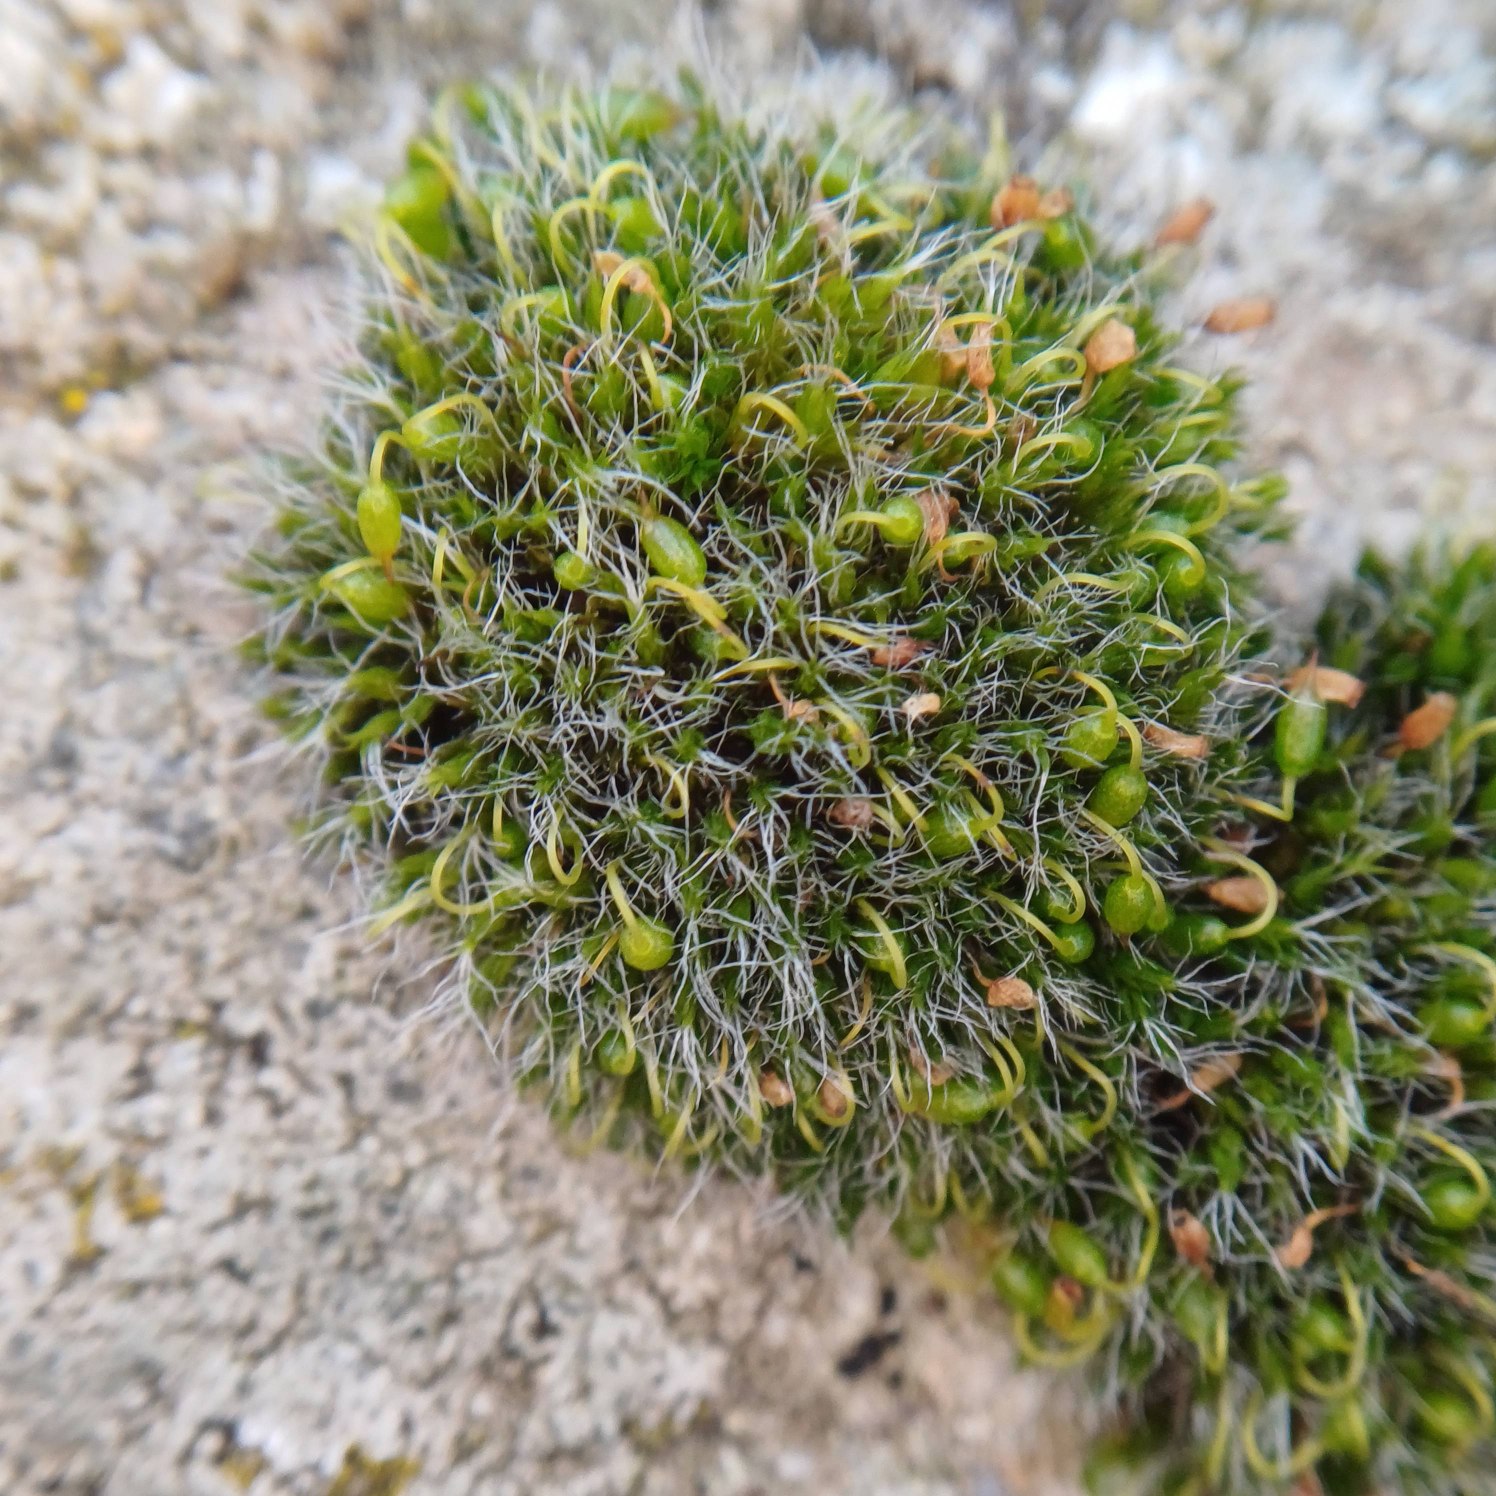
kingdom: Plantae
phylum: Bryophyta
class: Bryopsida
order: Grimmiales
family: Grimmiaceae
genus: Grimmia
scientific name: Grimmia pulvinata
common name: Pude-gråmos
